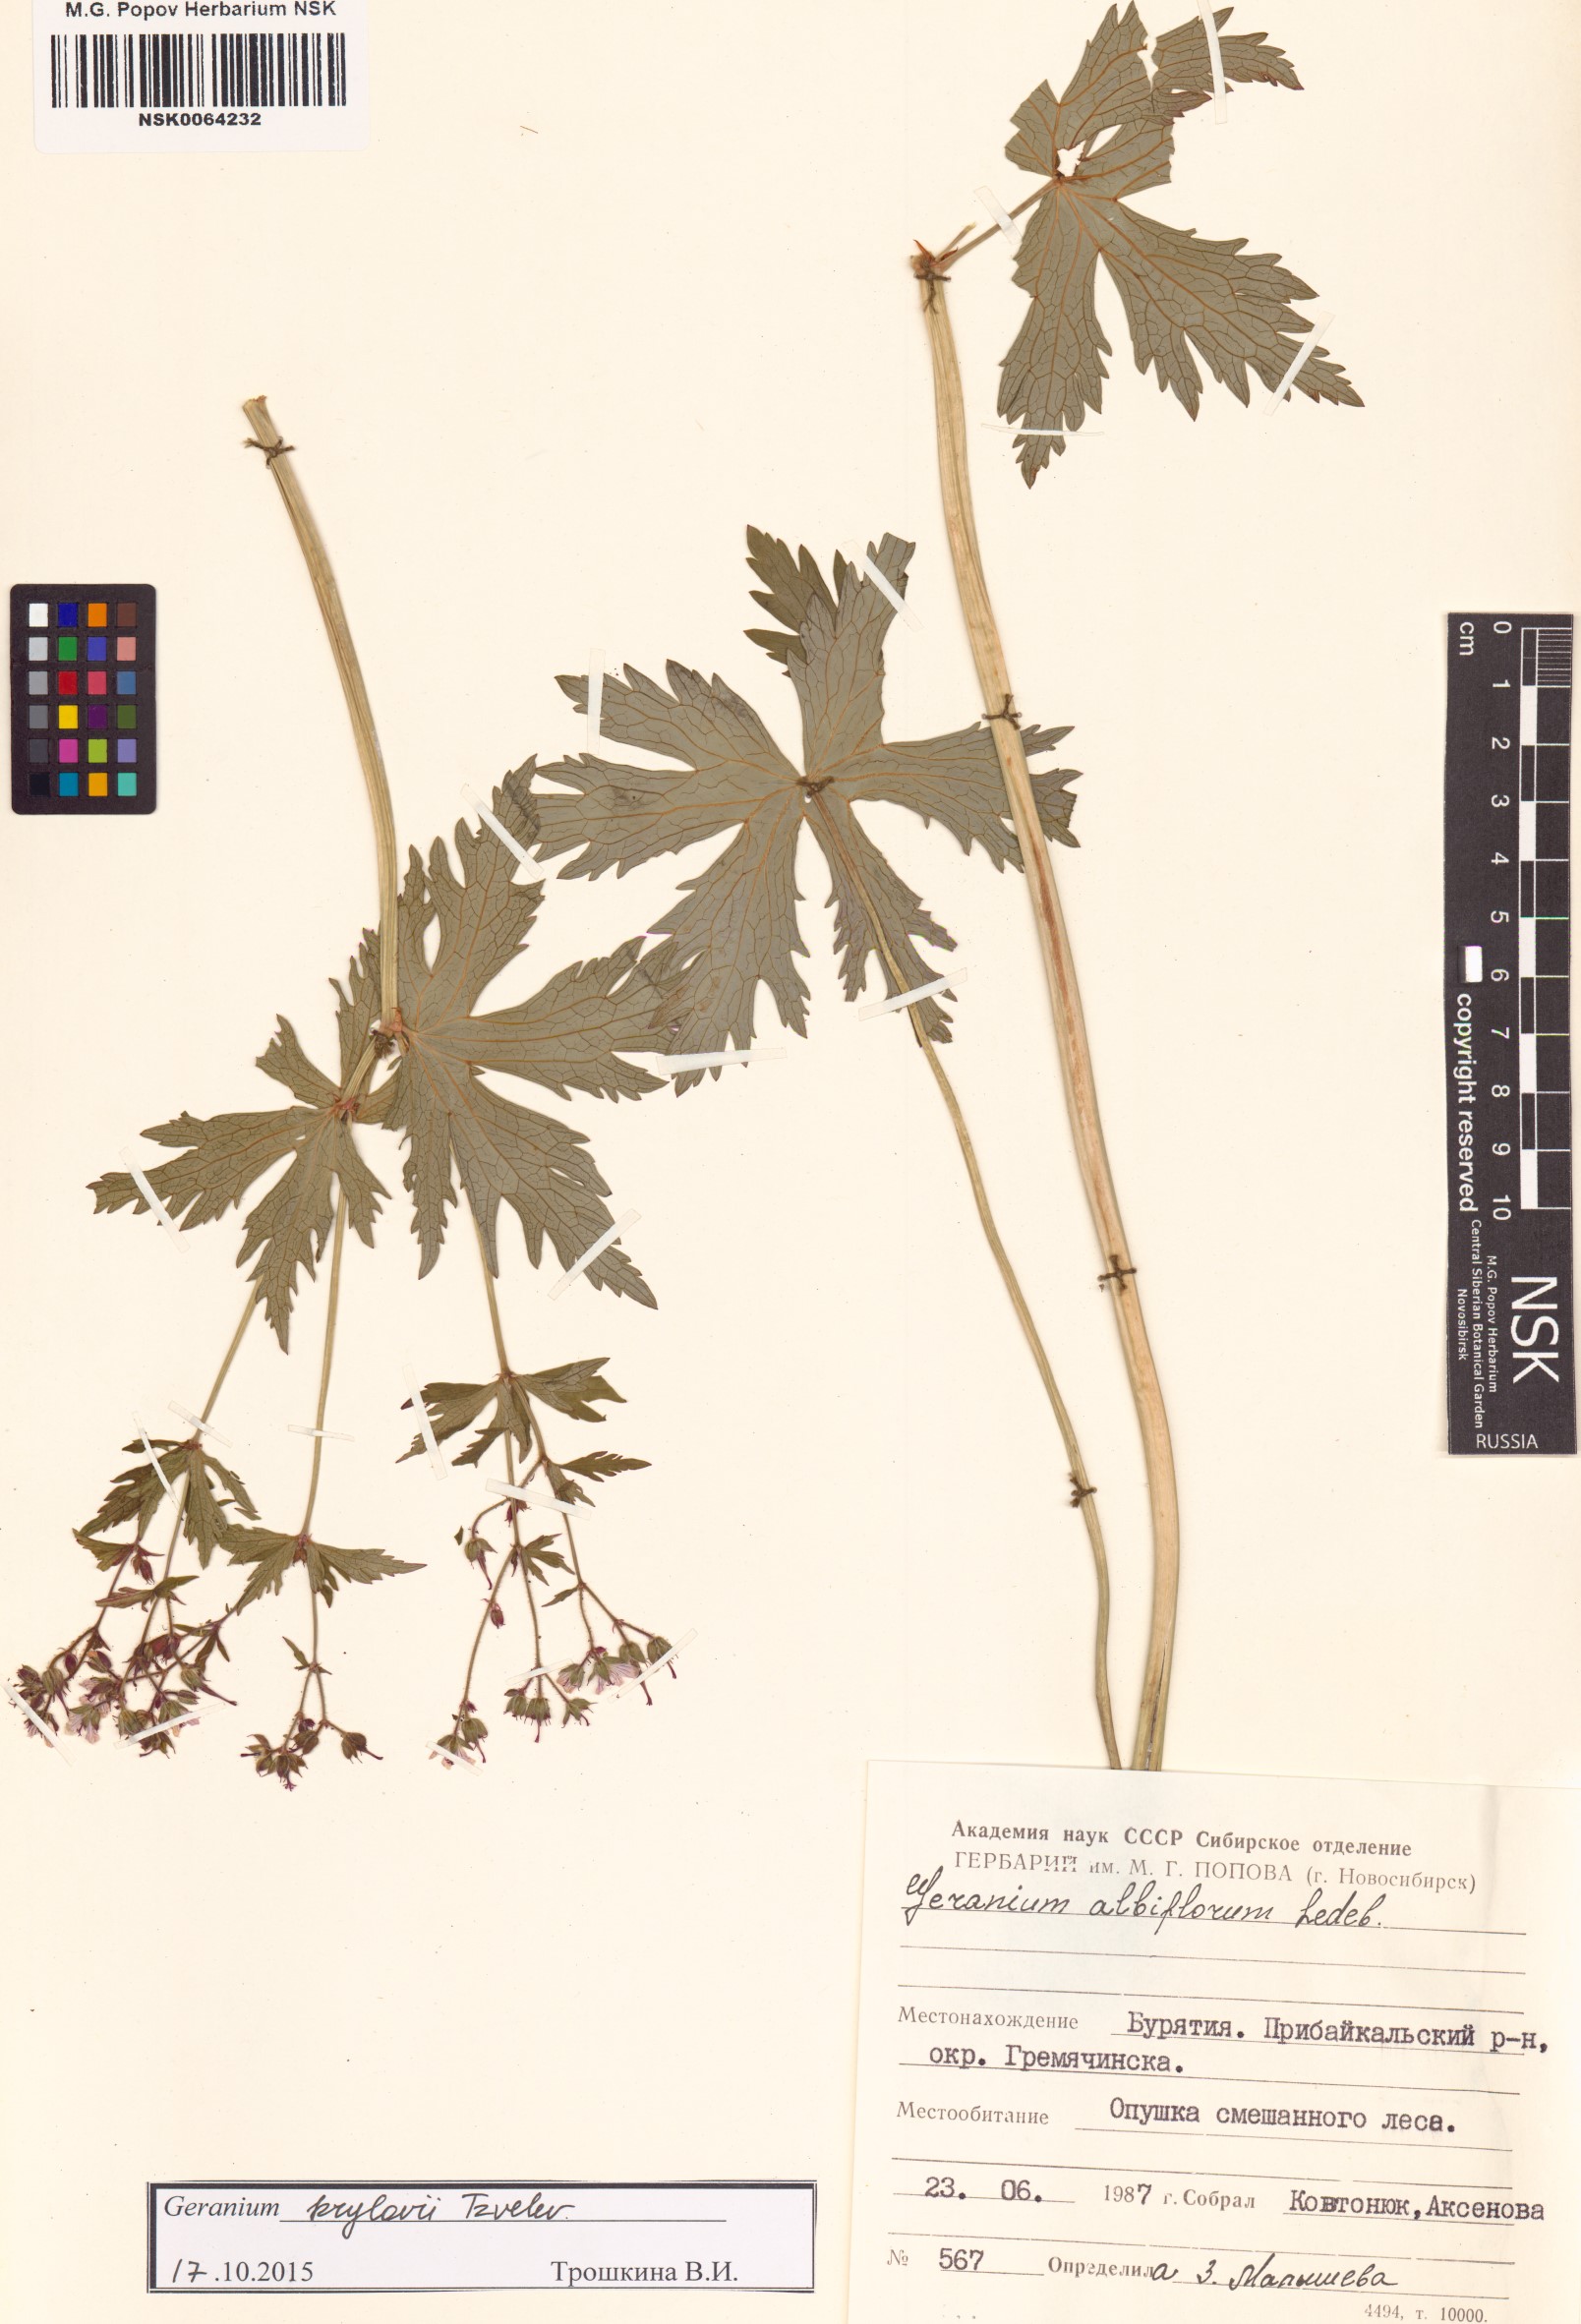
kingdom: Plantae
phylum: Tracheophyta
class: Magnoliopsida
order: Geraniales
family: Geraniaceae
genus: Geranium
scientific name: Geranium sylvaticum
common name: Wood crane's-bill
